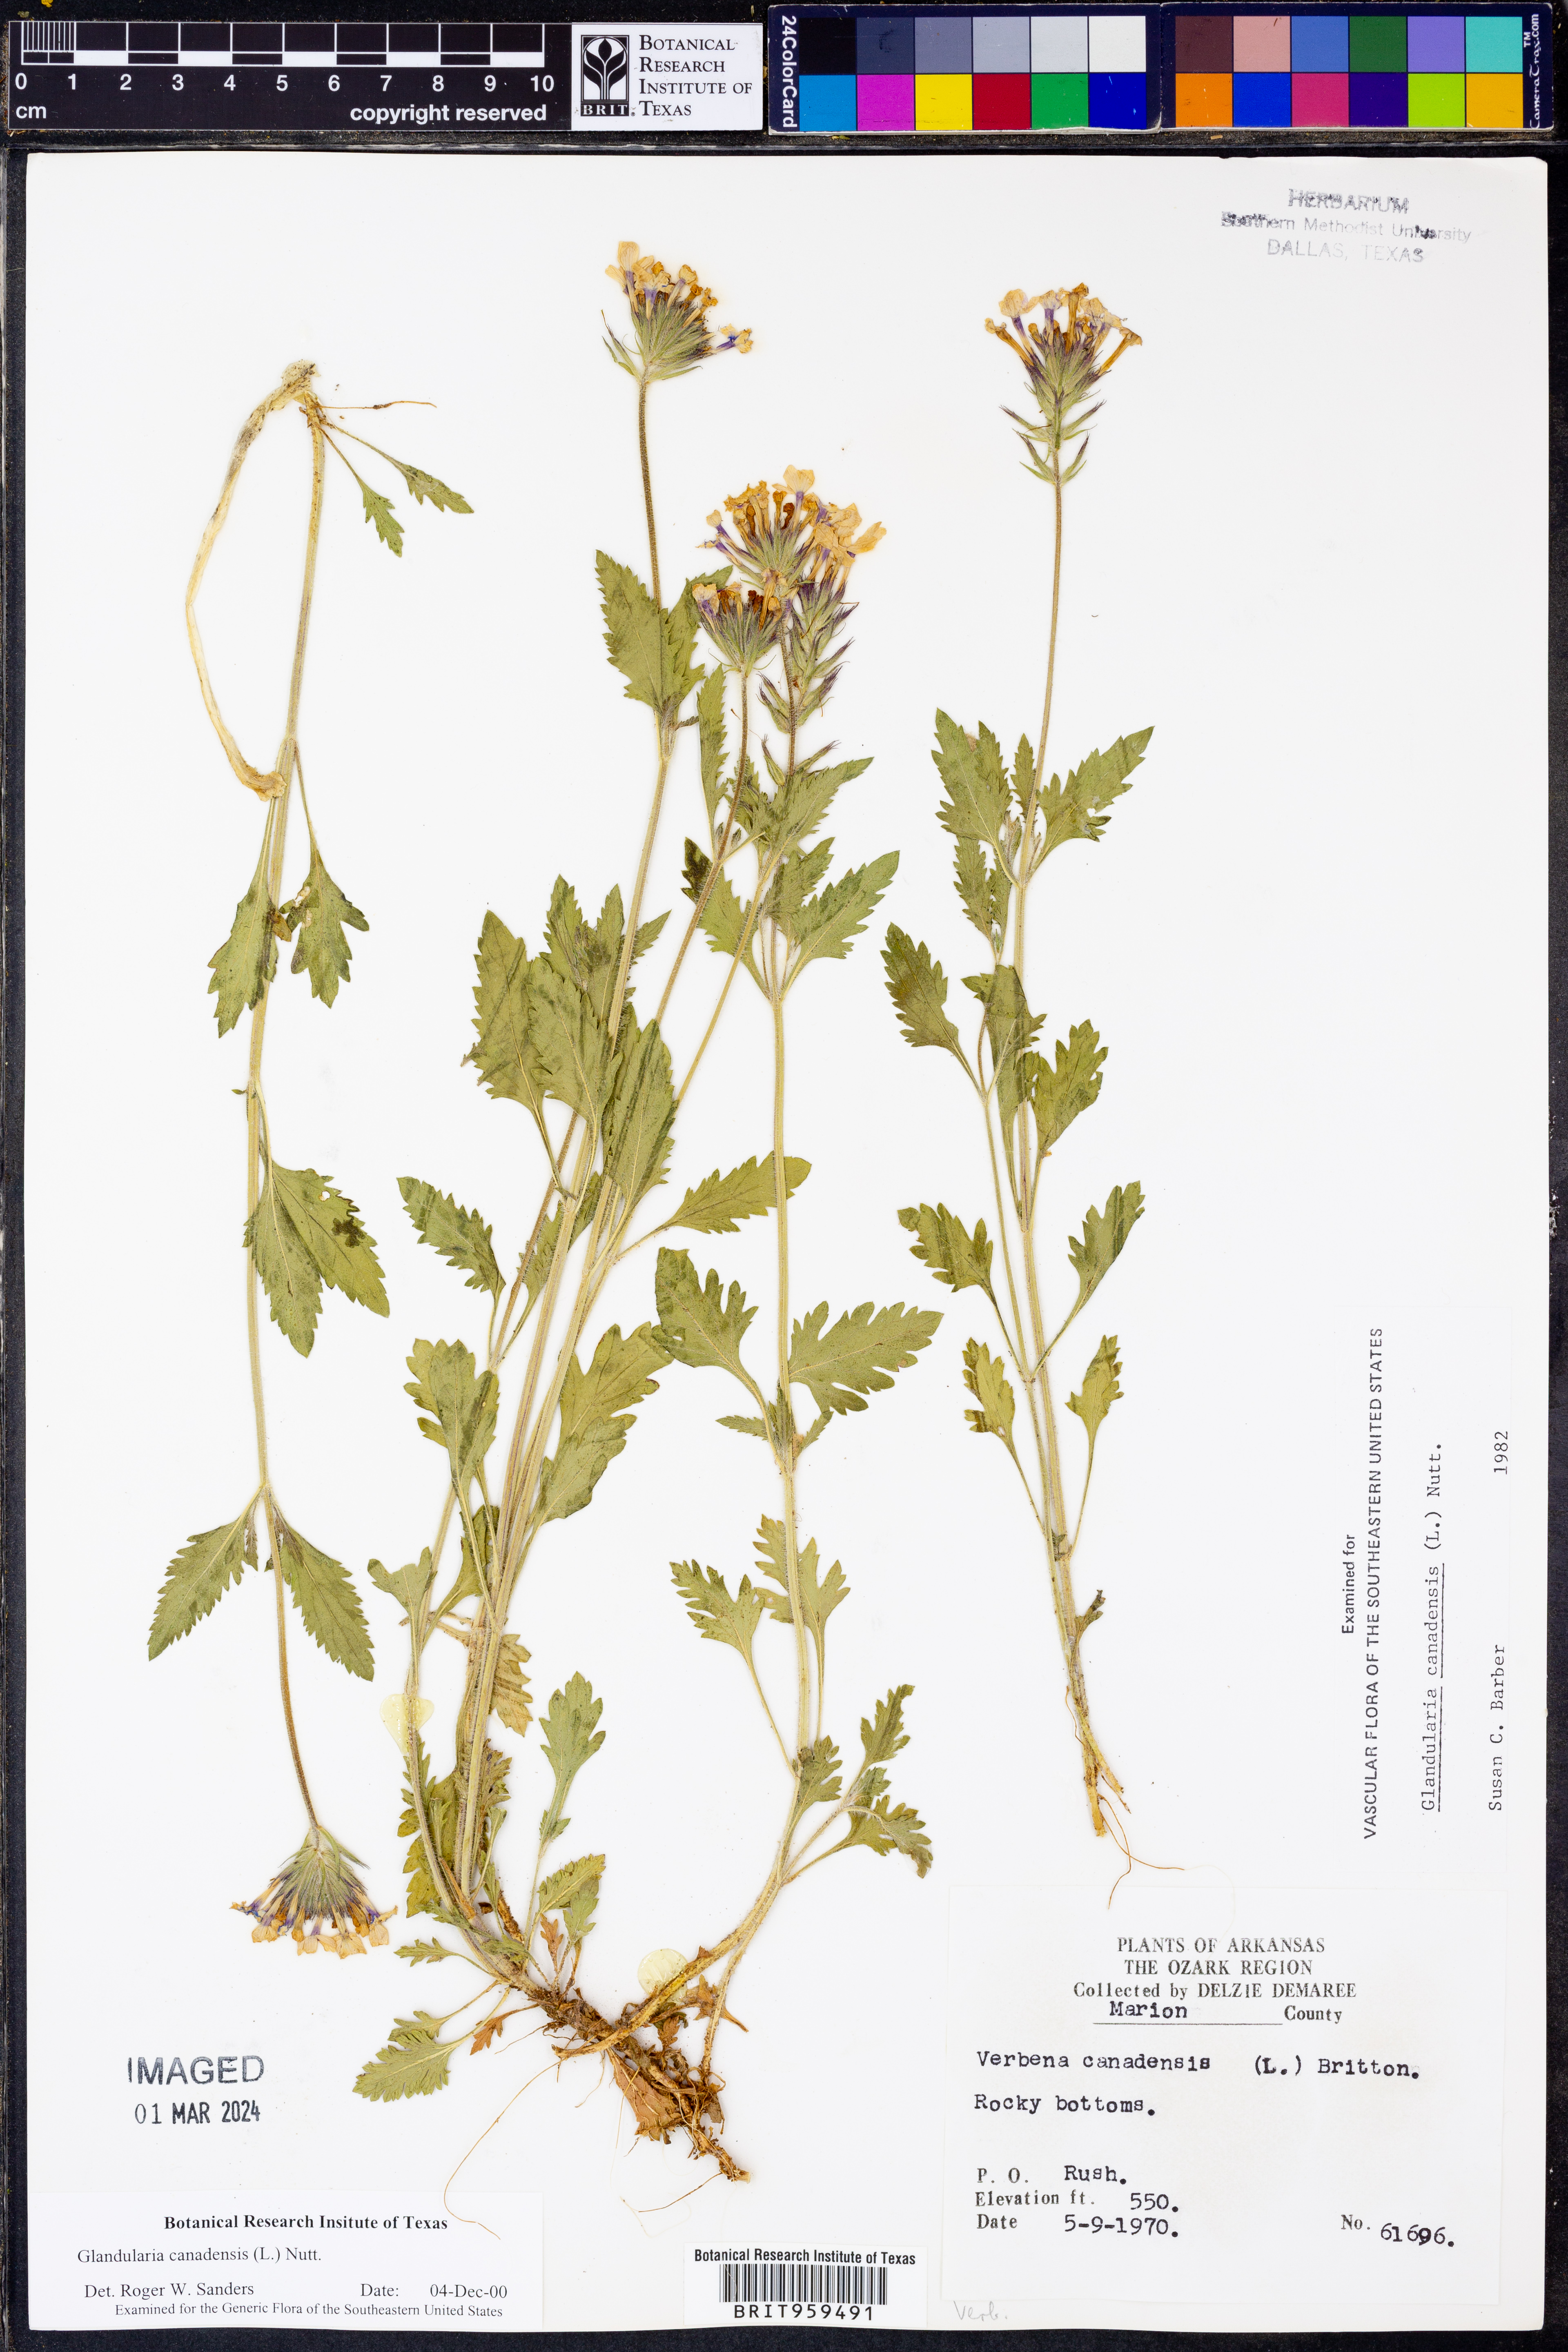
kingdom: Plantae
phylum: Tracheophyta
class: Magnoliopsida
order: Lamiales
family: Verbenaceae
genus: Verbena
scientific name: Verbena canadensis
